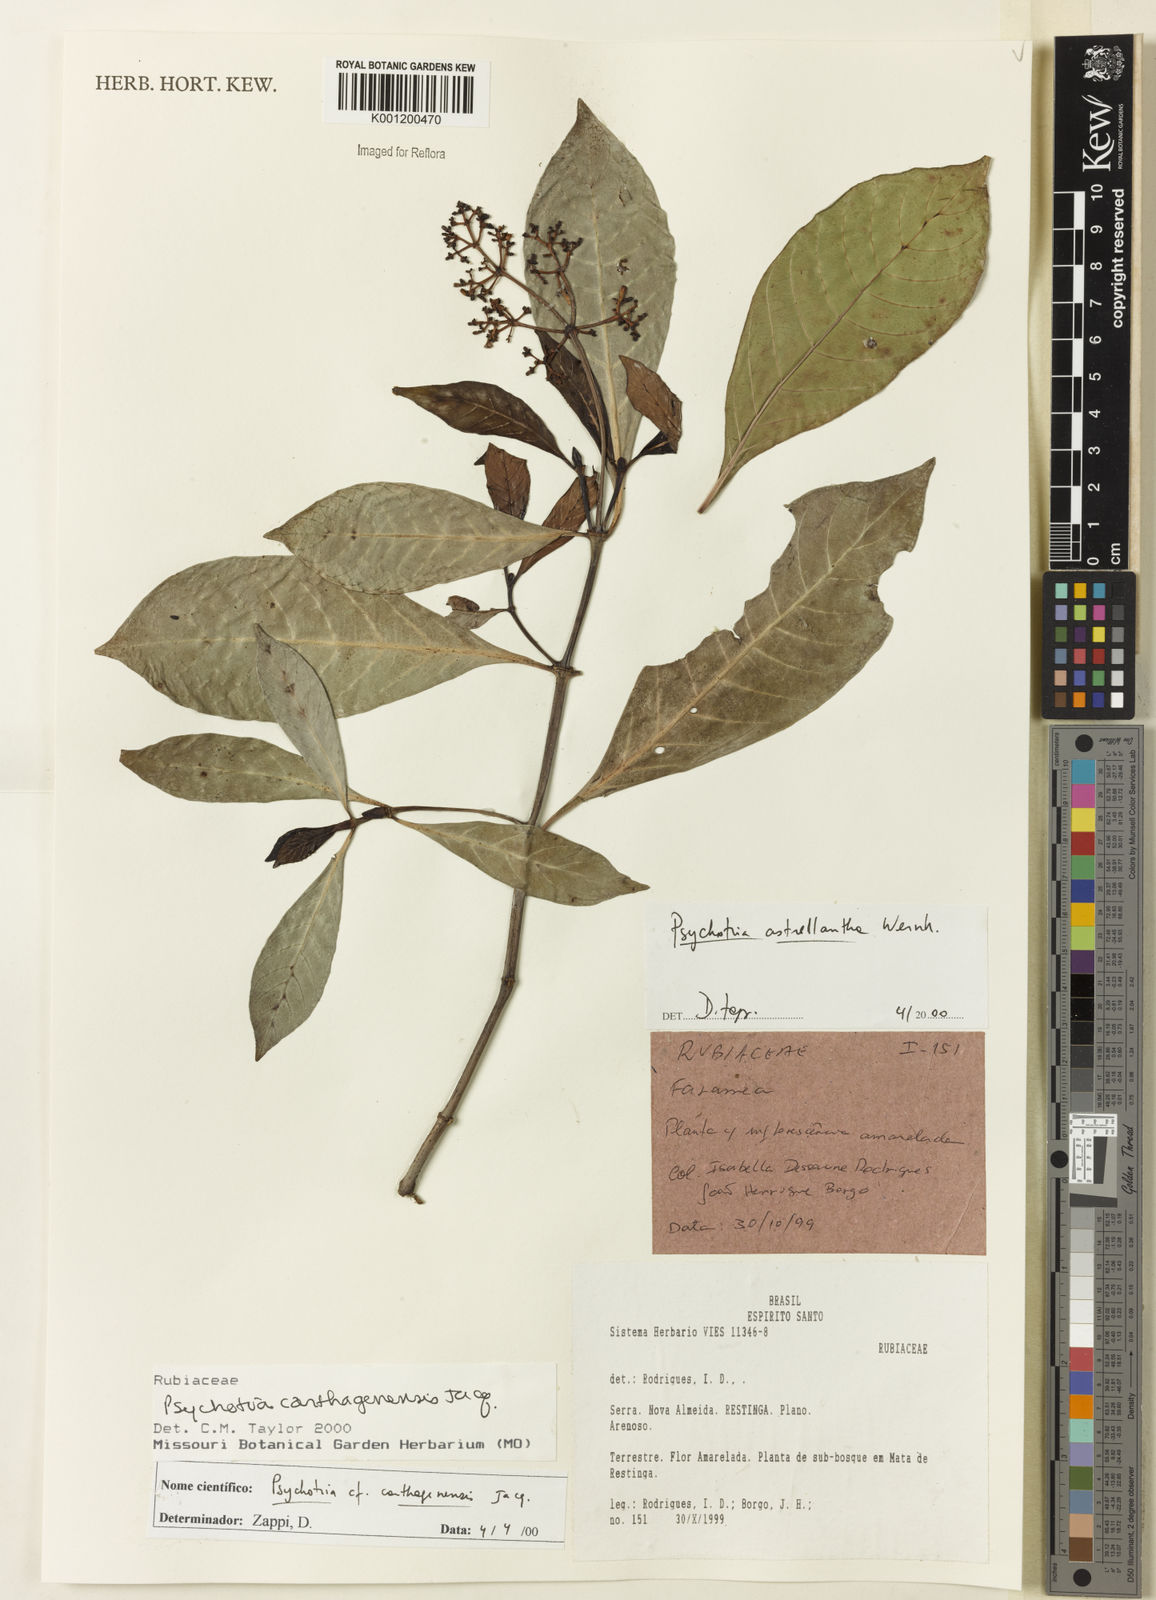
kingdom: Plantae
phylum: Tracheophyta
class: Magnoliopsida
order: Gentianales
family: Rubiaceae
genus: Psychotria
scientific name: Psychotria carthagenensis
